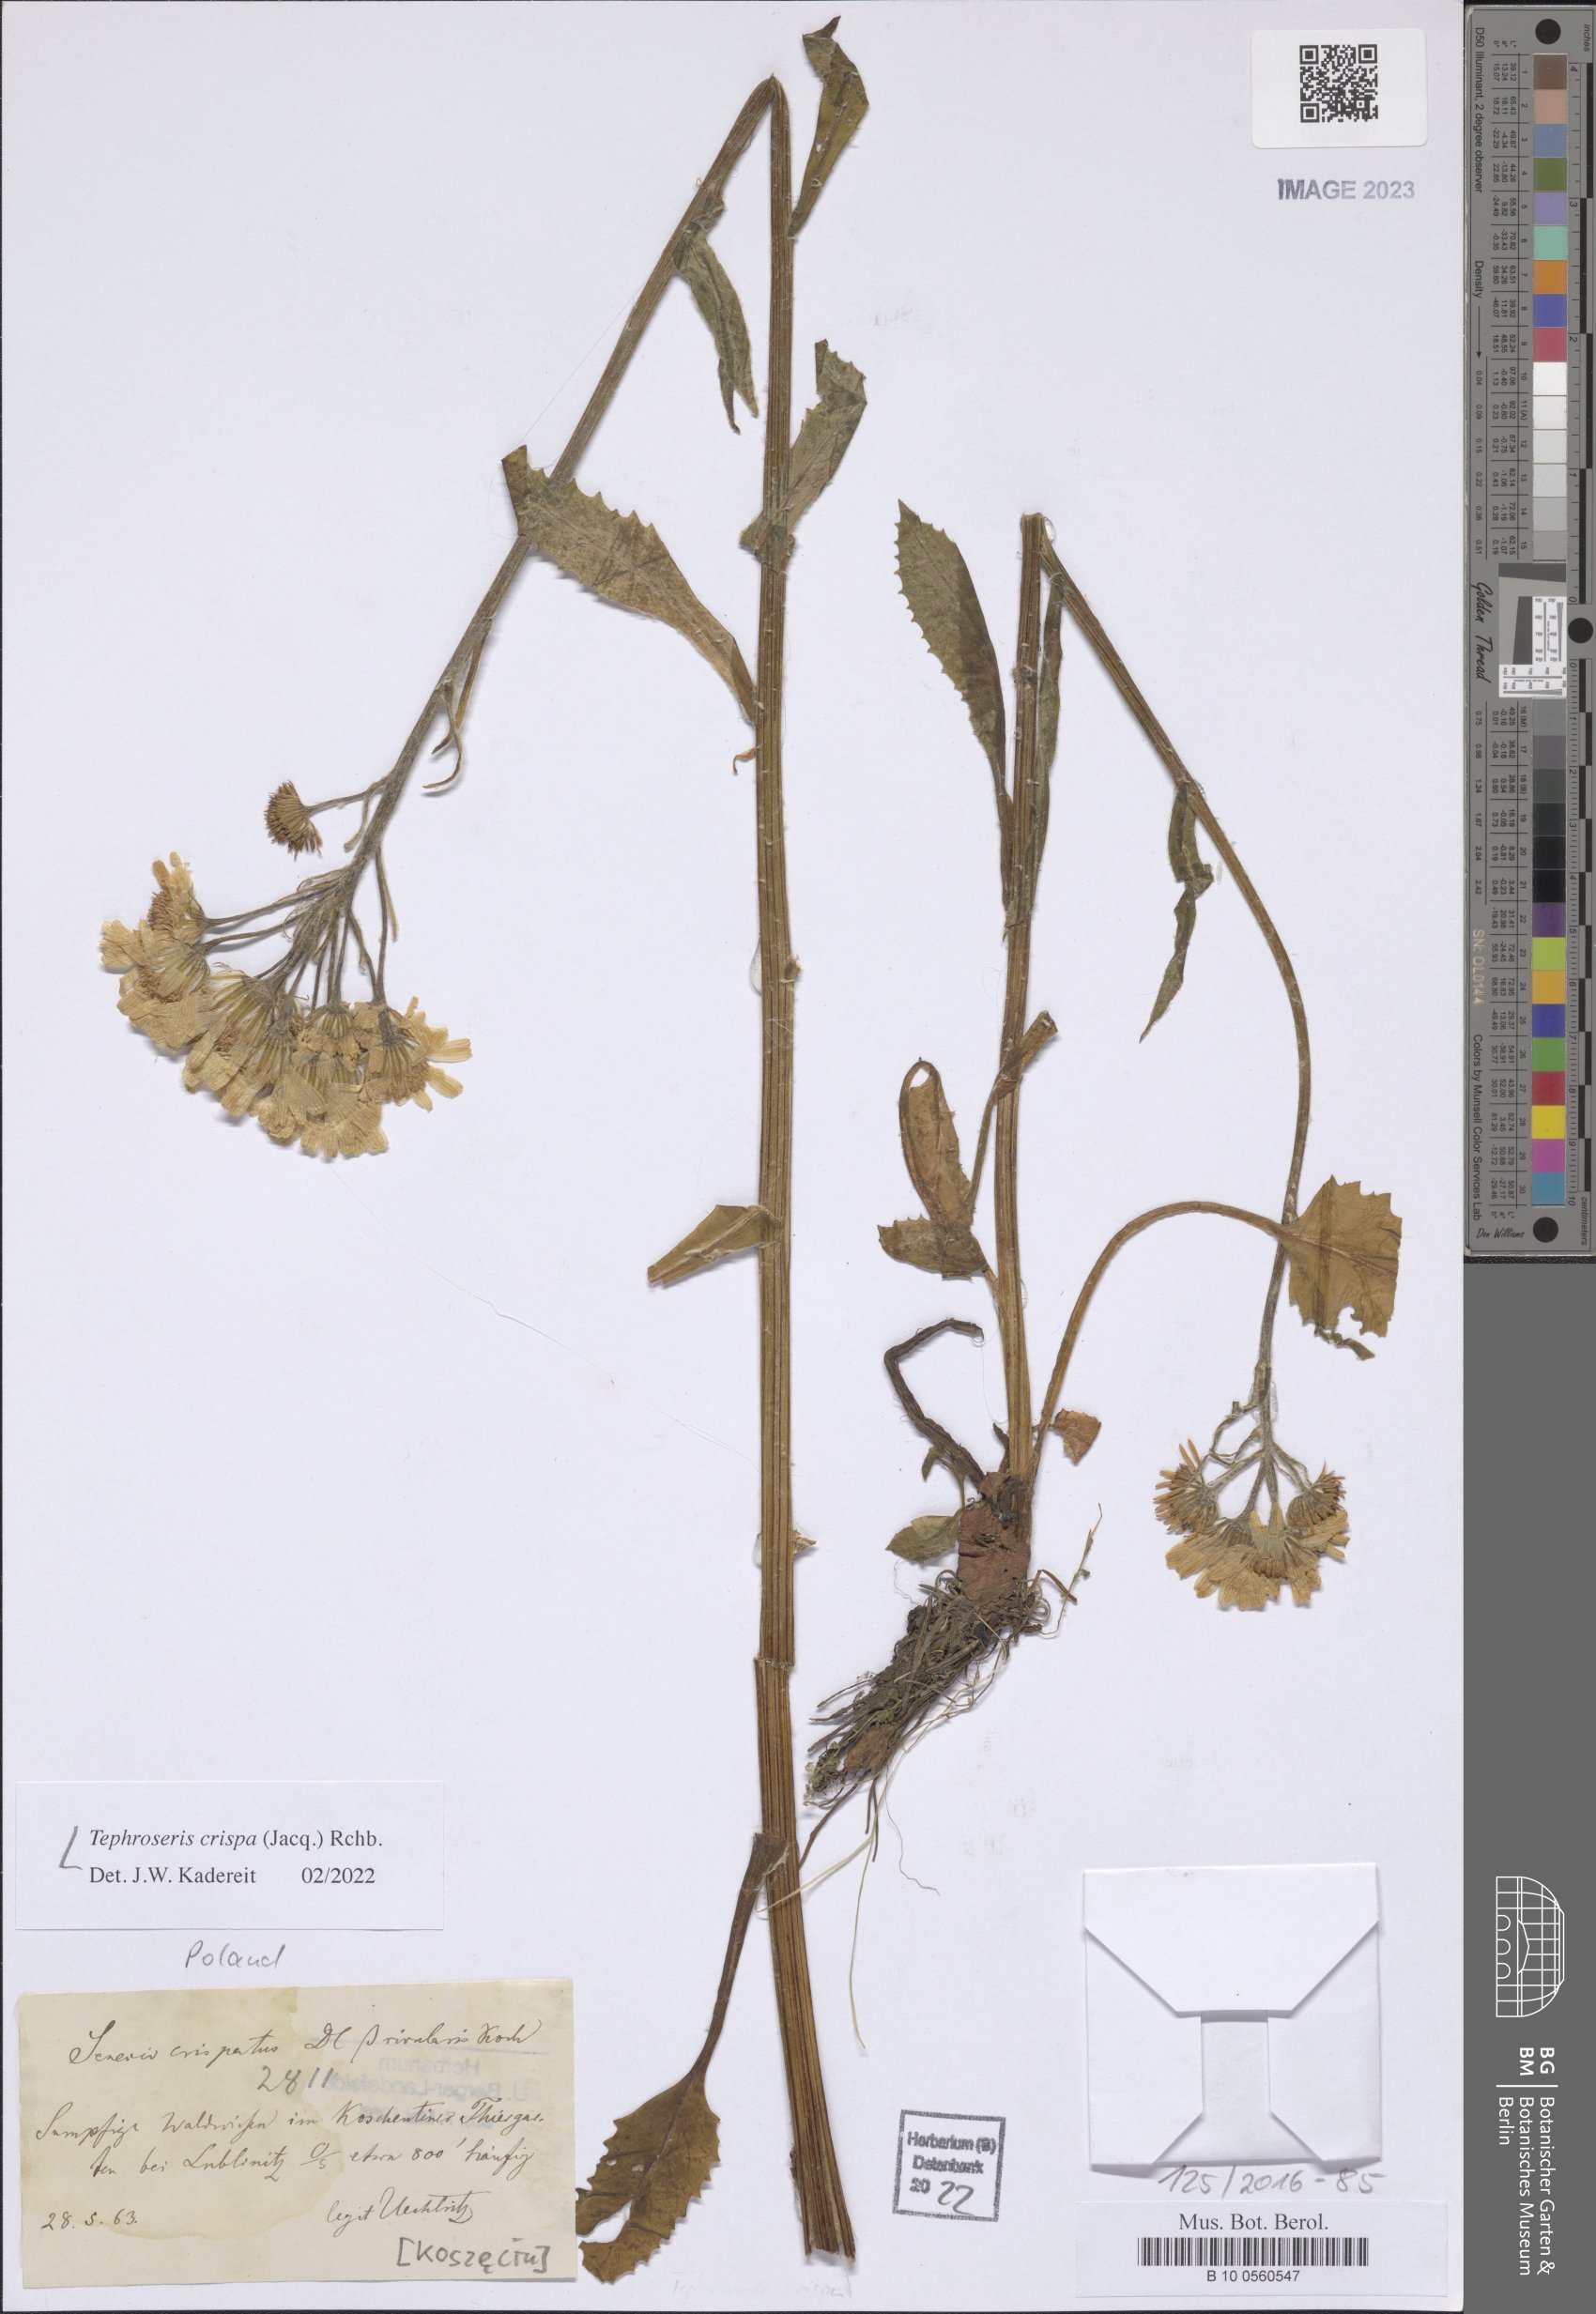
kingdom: Plantae
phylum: Tracheophyta
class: Magnoliopsida
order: Asterales
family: Asteraceae
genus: Tephroseris
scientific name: Tephroseris crispa
